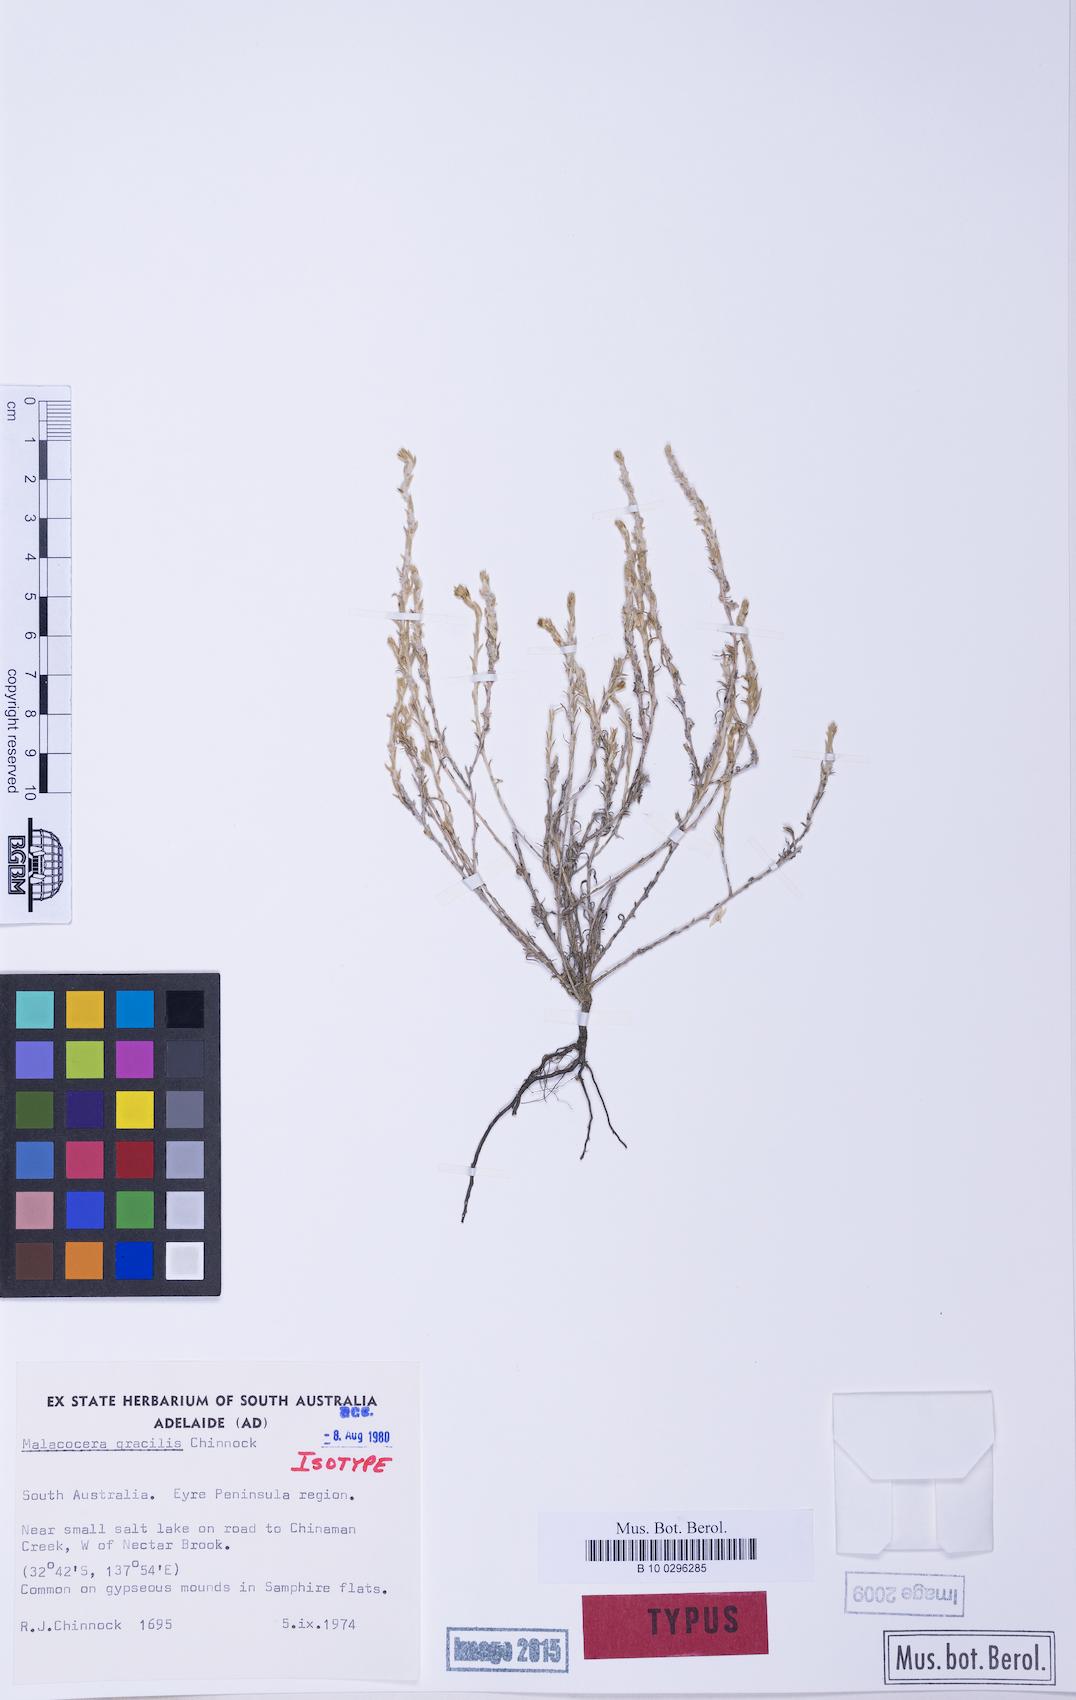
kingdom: Plantae
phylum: Tracheophyta
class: Magnoliopsida
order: Caryophyllales
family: Amaranthaceae
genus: Malacocera
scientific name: Malacocera gracilis
